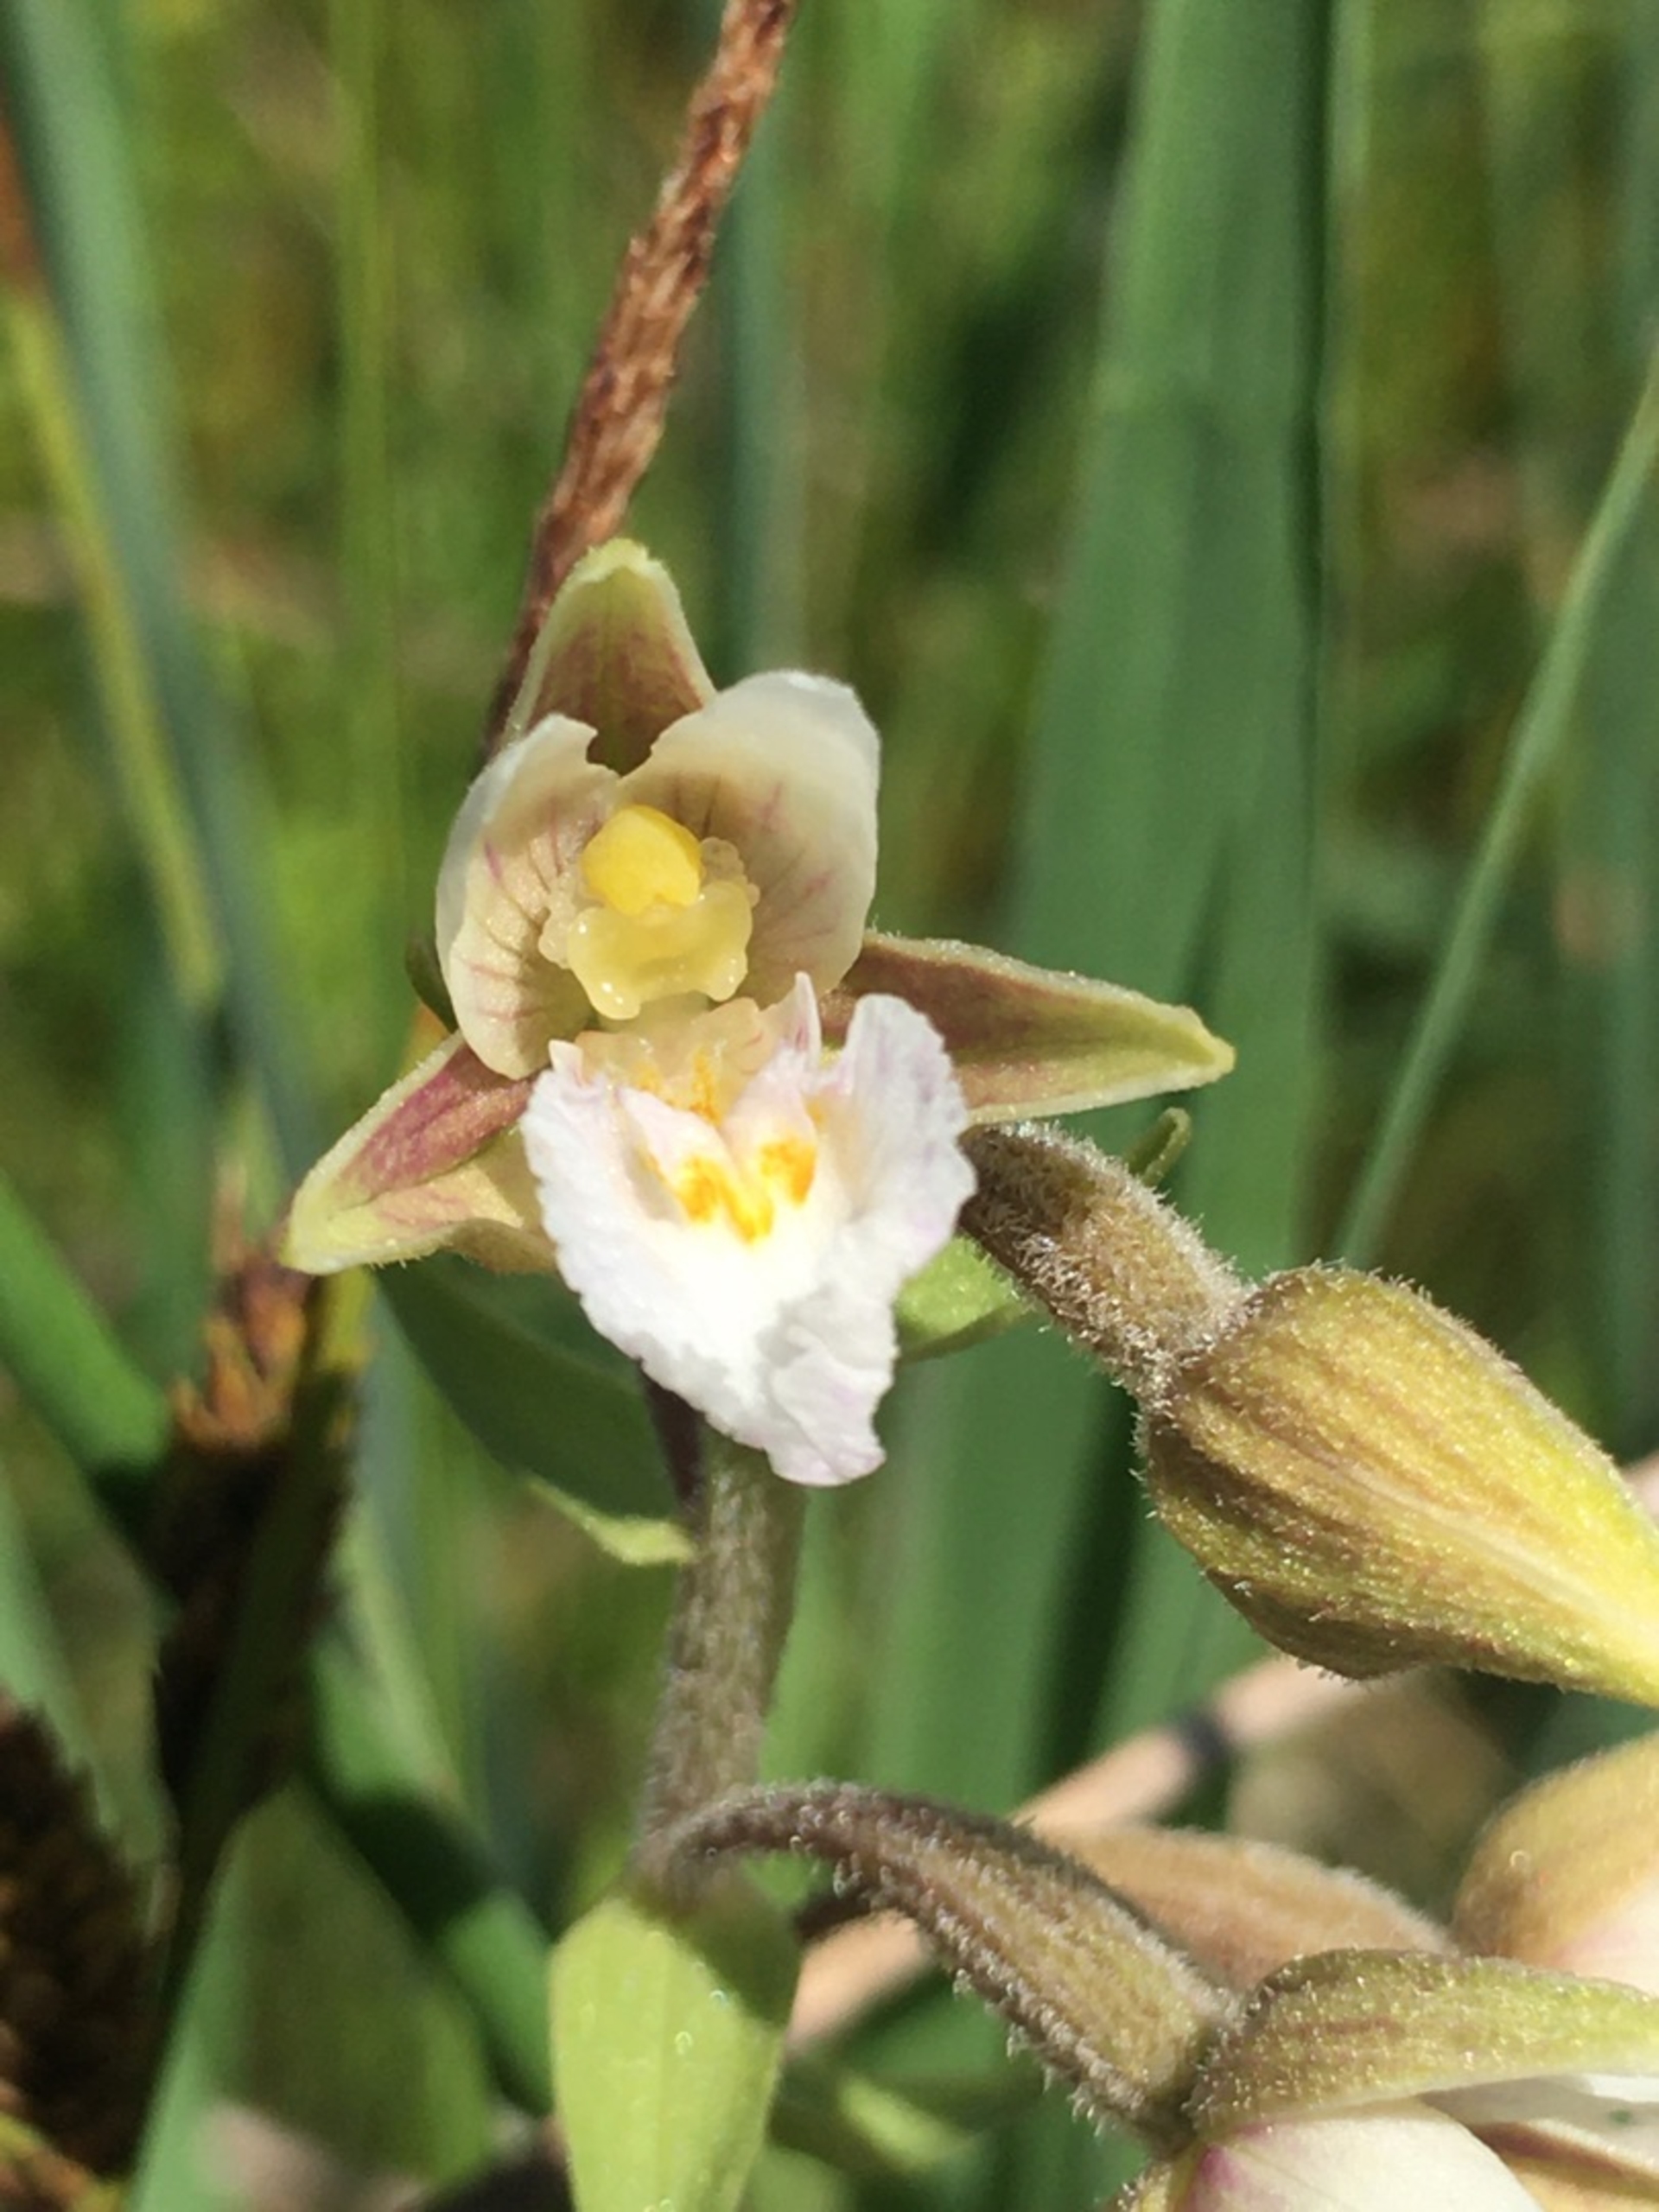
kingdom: Plantae
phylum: Tracheophyta
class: Liliopsida
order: Asparagales
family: Orchidaceae
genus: Epipactis
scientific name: Epipactis palustris
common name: Sump-hullæbe
